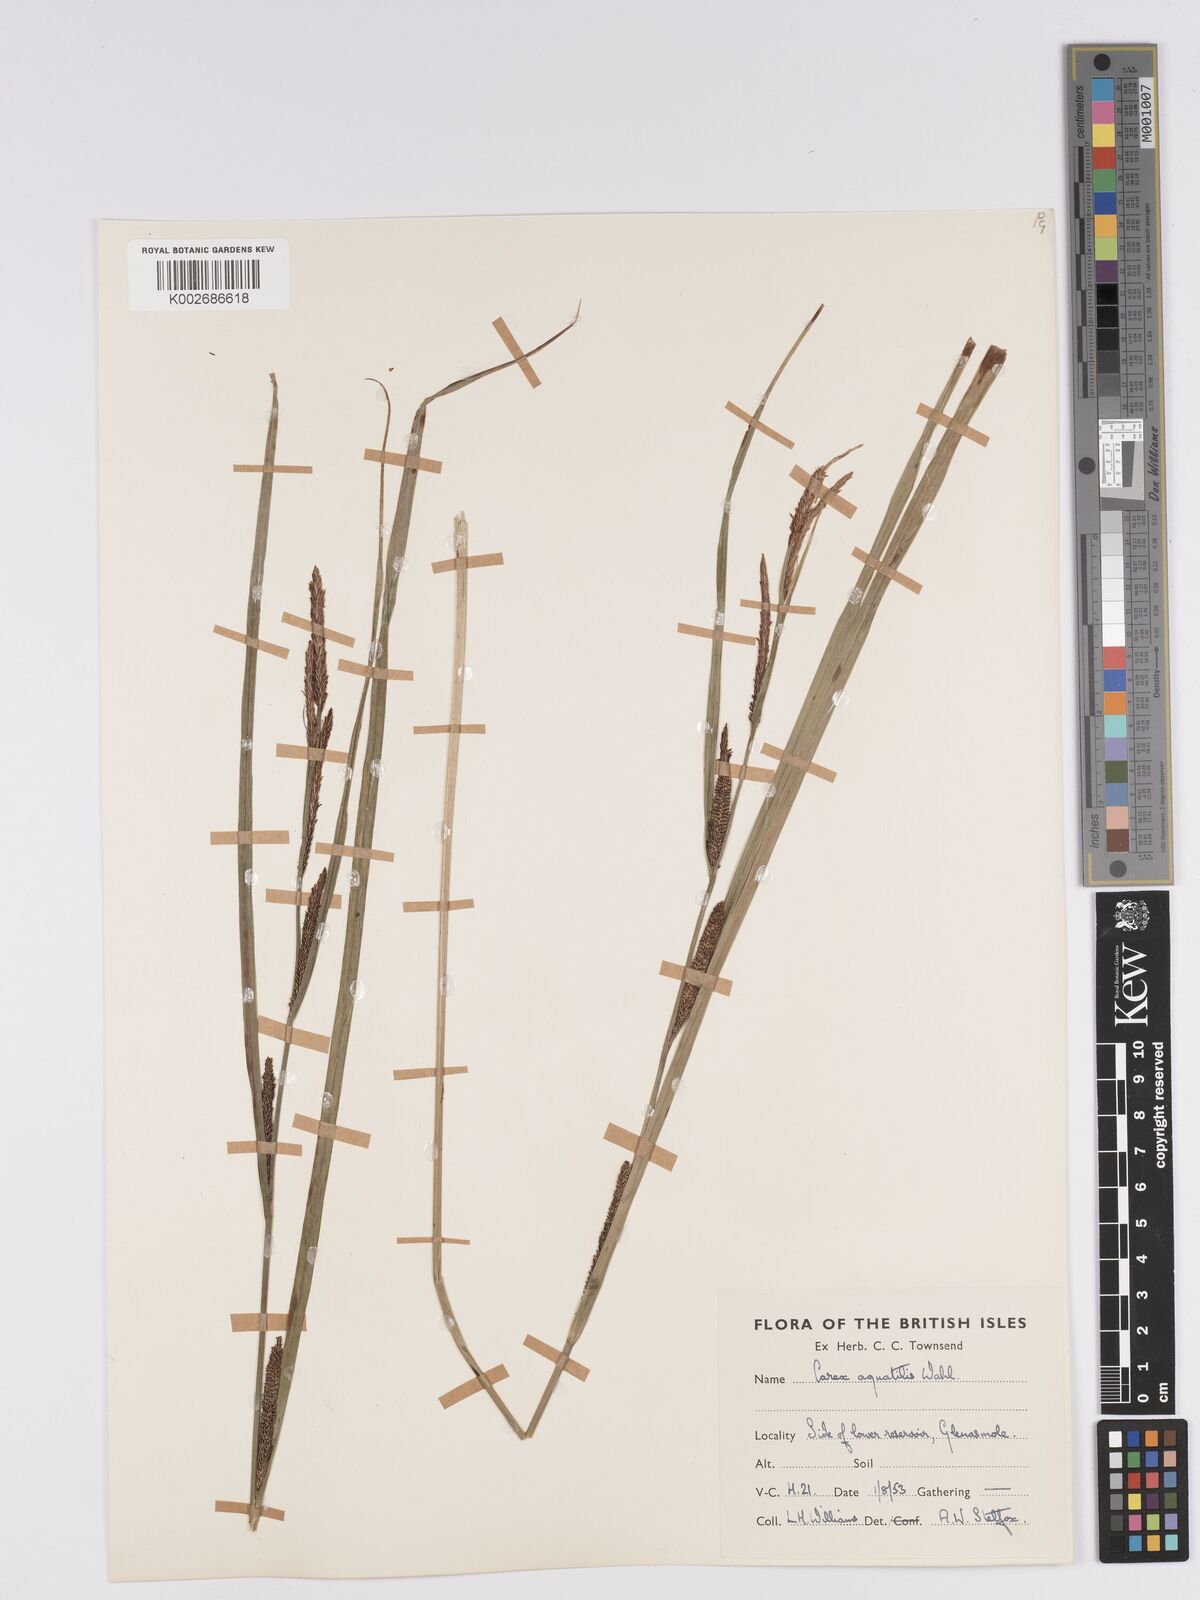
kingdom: Plantae
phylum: Tracheophyta
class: Liliopsida
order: Poales
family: Cyperaceae
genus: Carex
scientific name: Carex aquatilis
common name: Water sedge
